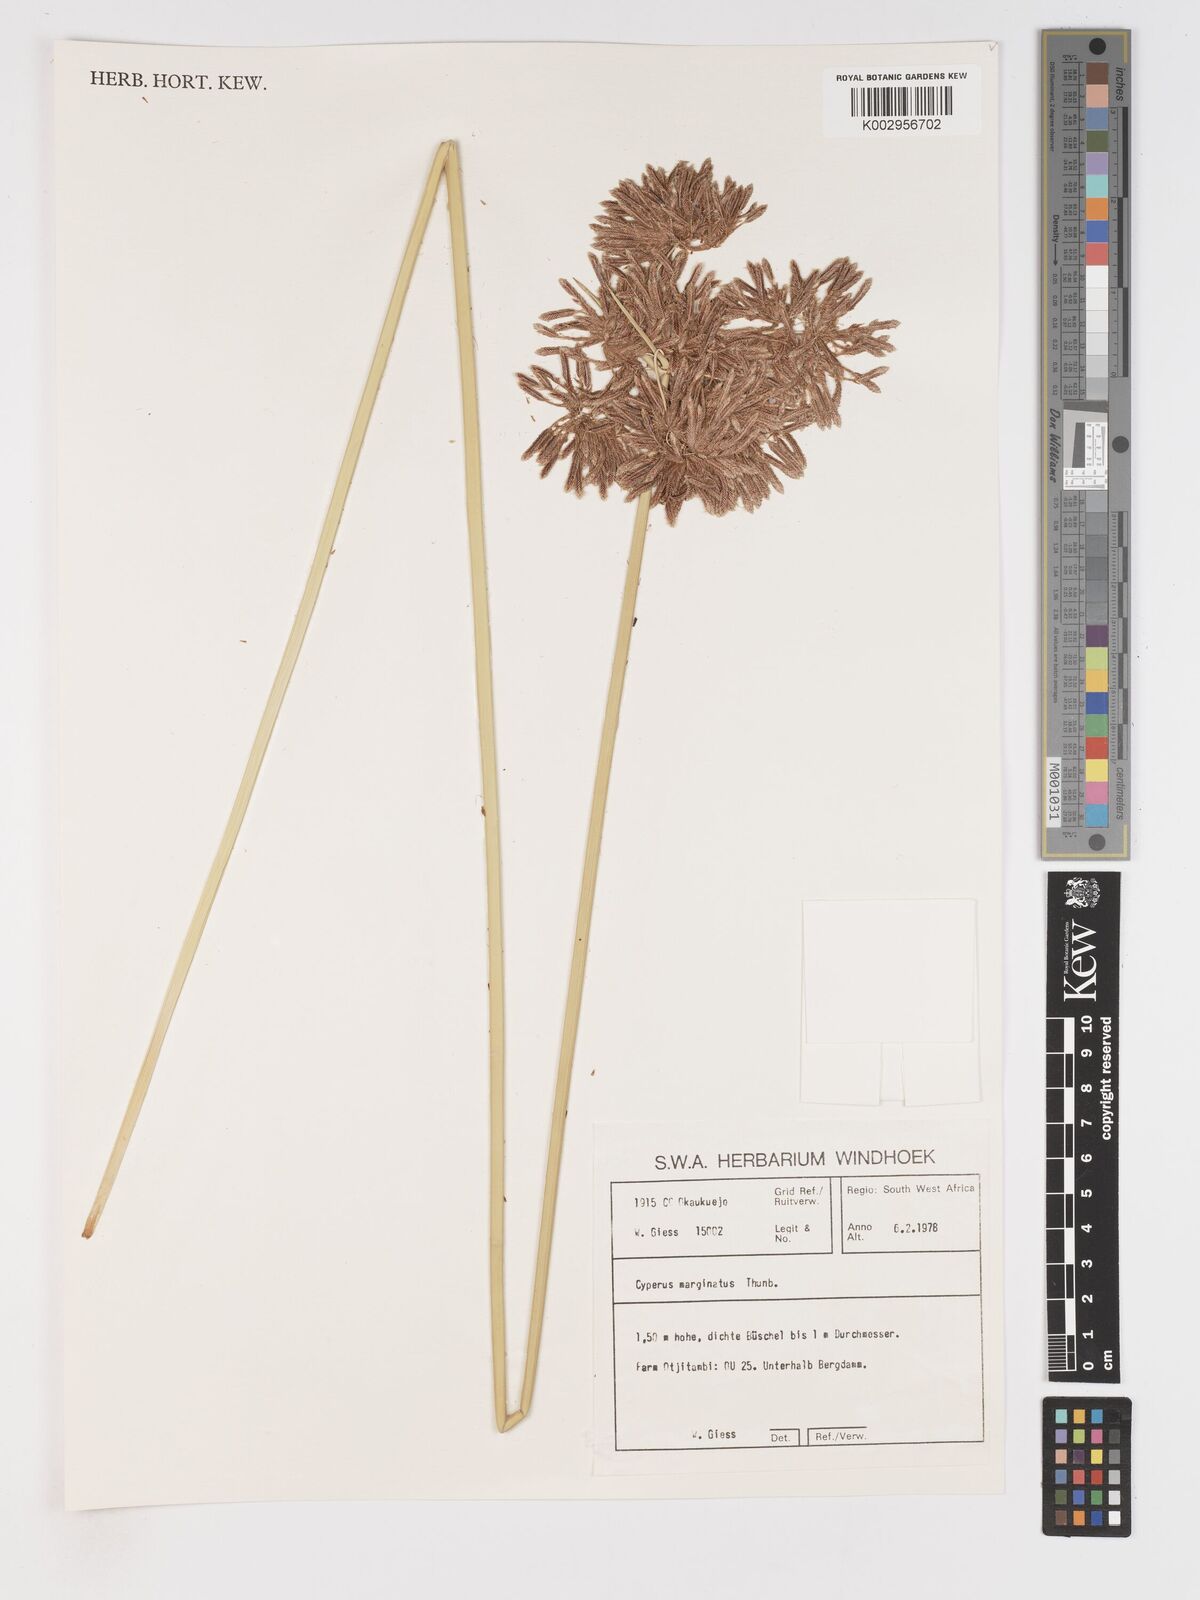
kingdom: Plantae
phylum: Tracheophyta
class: Liliopsida
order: Poales
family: Cyperaceae
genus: Cyperus
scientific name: Cyperus marginatus
